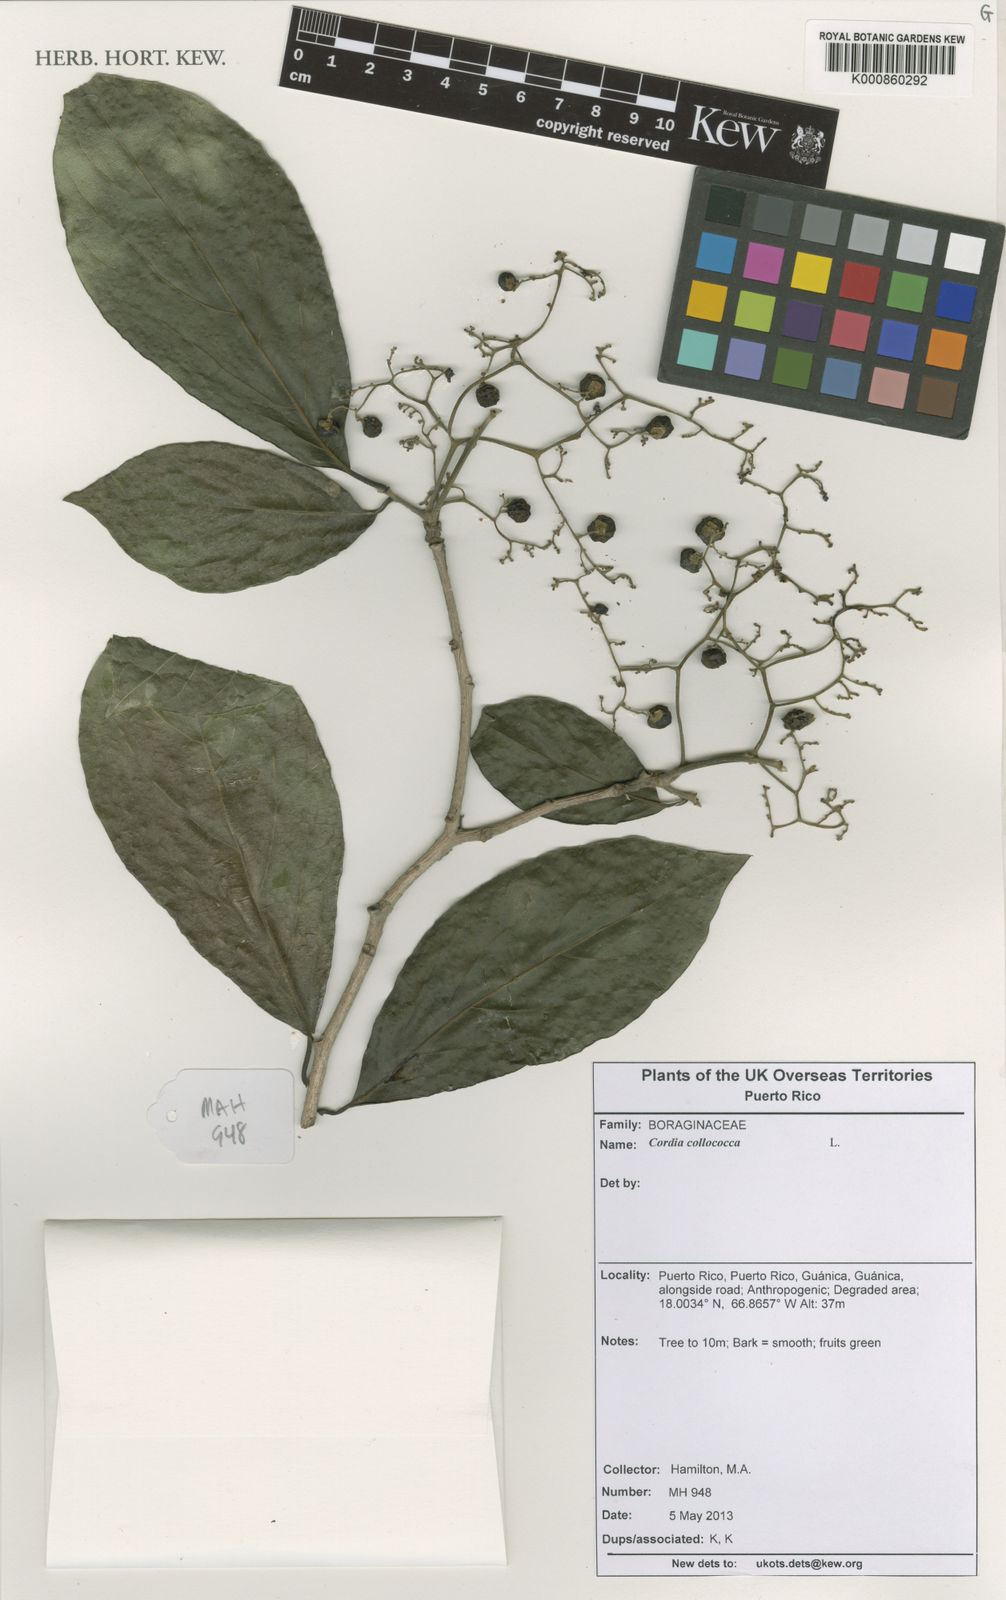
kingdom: Plantae
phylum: Tracheophyta
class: Magnoliopsida
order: Boraginales
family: Cordiaceae
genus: Cordia
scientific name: Cordia collococca
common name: Clammy cherry
